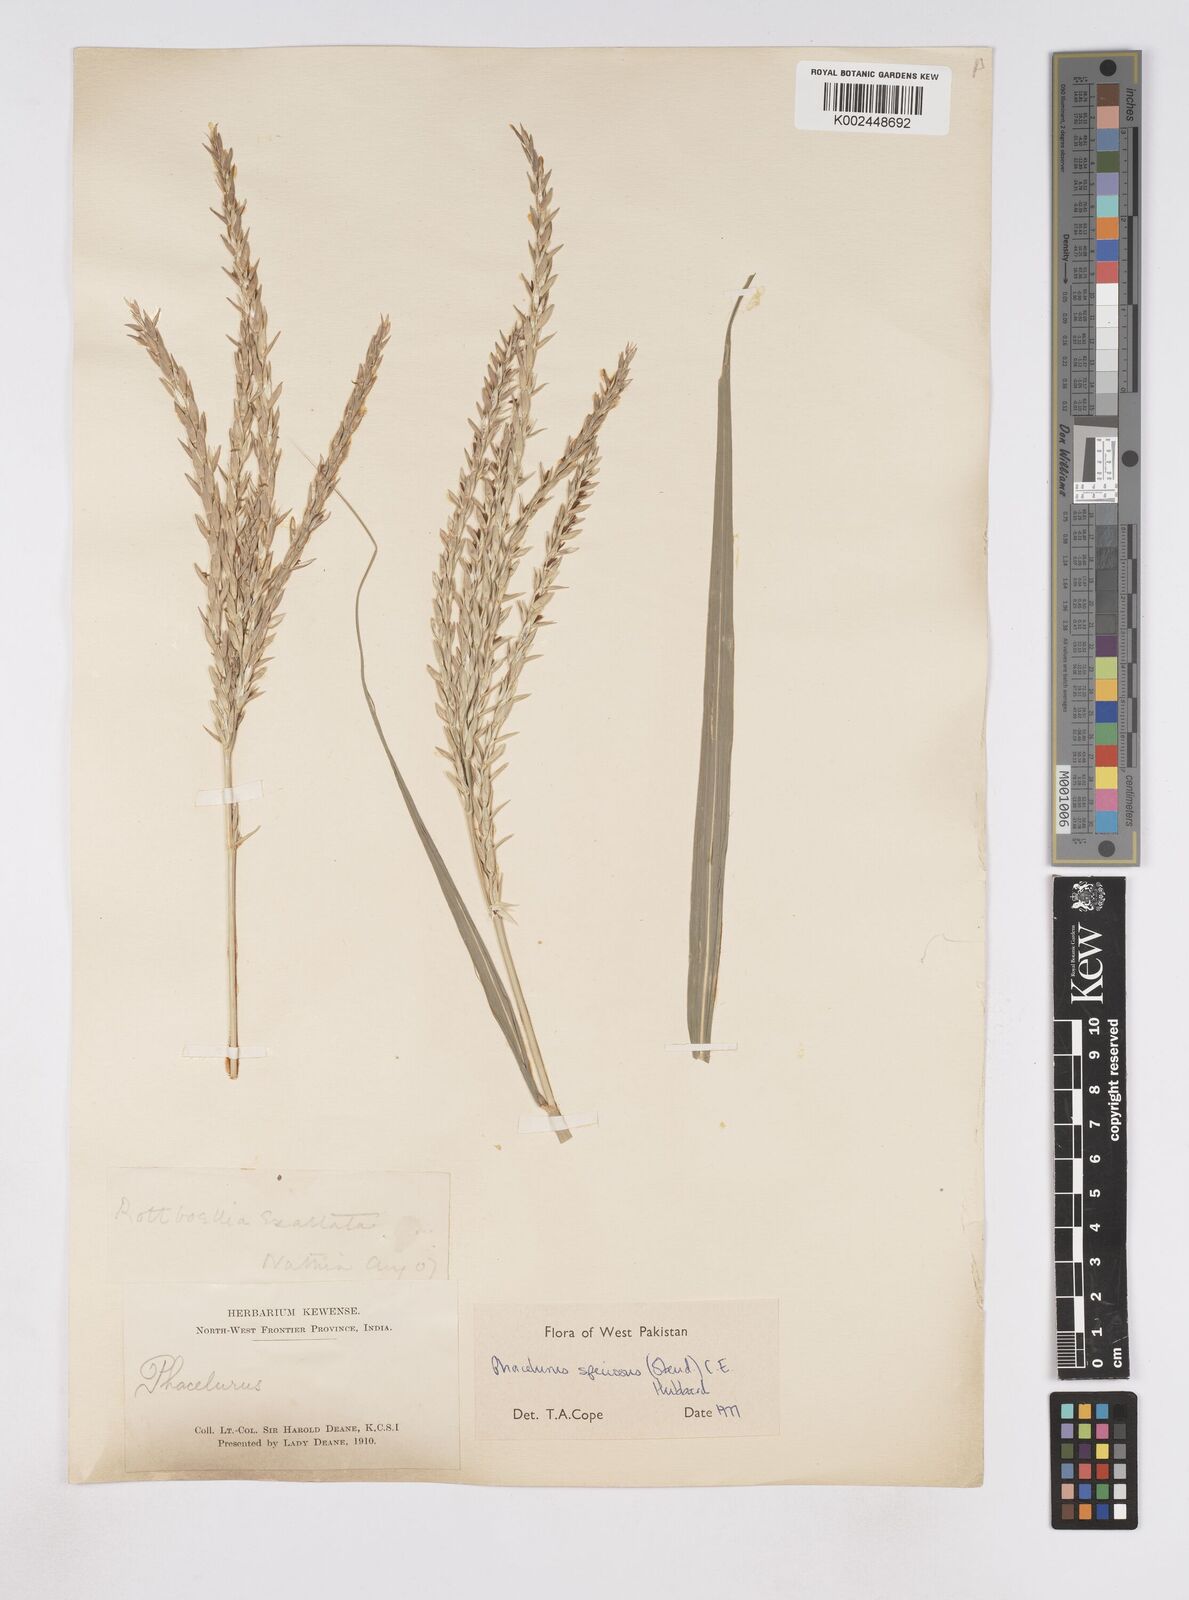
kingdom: Plantae
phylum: Tracheophyta
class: Liliopsida
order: Poales
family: Poaceae
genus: Phacelurus
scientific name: Phacelurus speciosus
